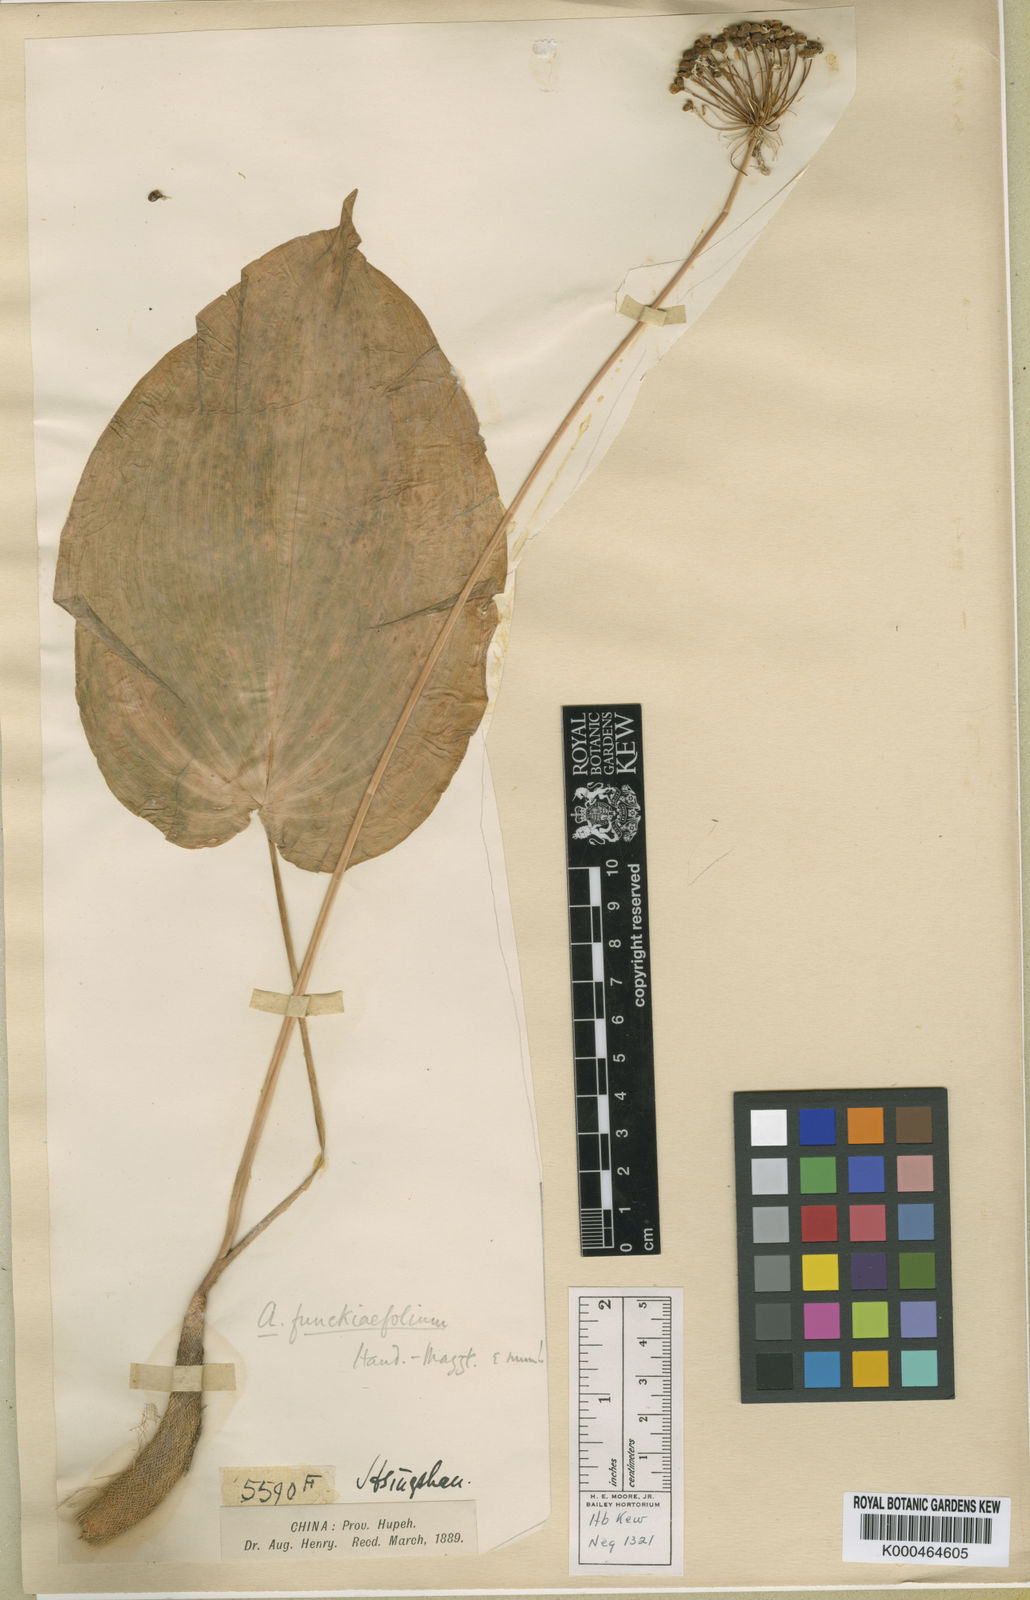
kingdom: Plantae
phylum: Tracheophyta
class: Liliopsida
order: Asparagales
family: Amaryllidaceae
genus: Allium
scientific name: Allium
